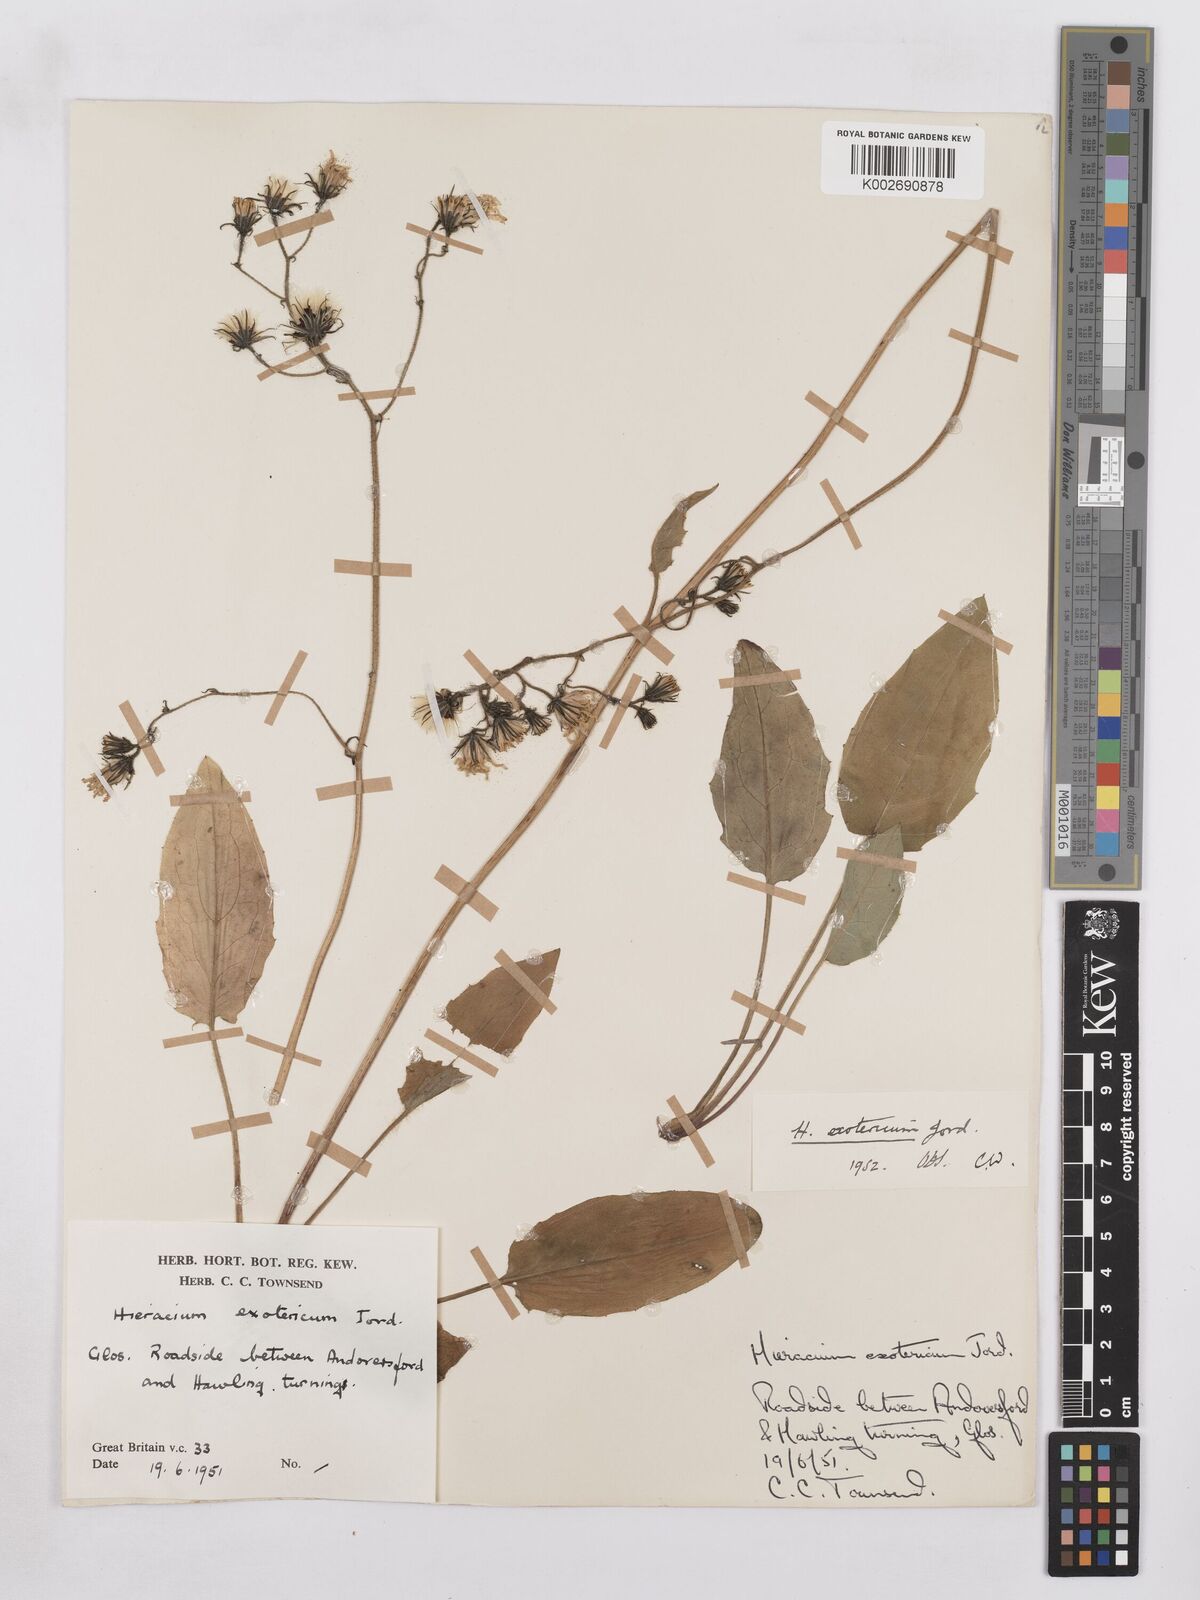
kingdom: Plantae
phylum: Tracheophyta
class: Magnoliopsida
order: Asterales
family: Asteraceae
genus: Hieracium
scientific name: Hieracium murorum
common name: Wall hawkweed
